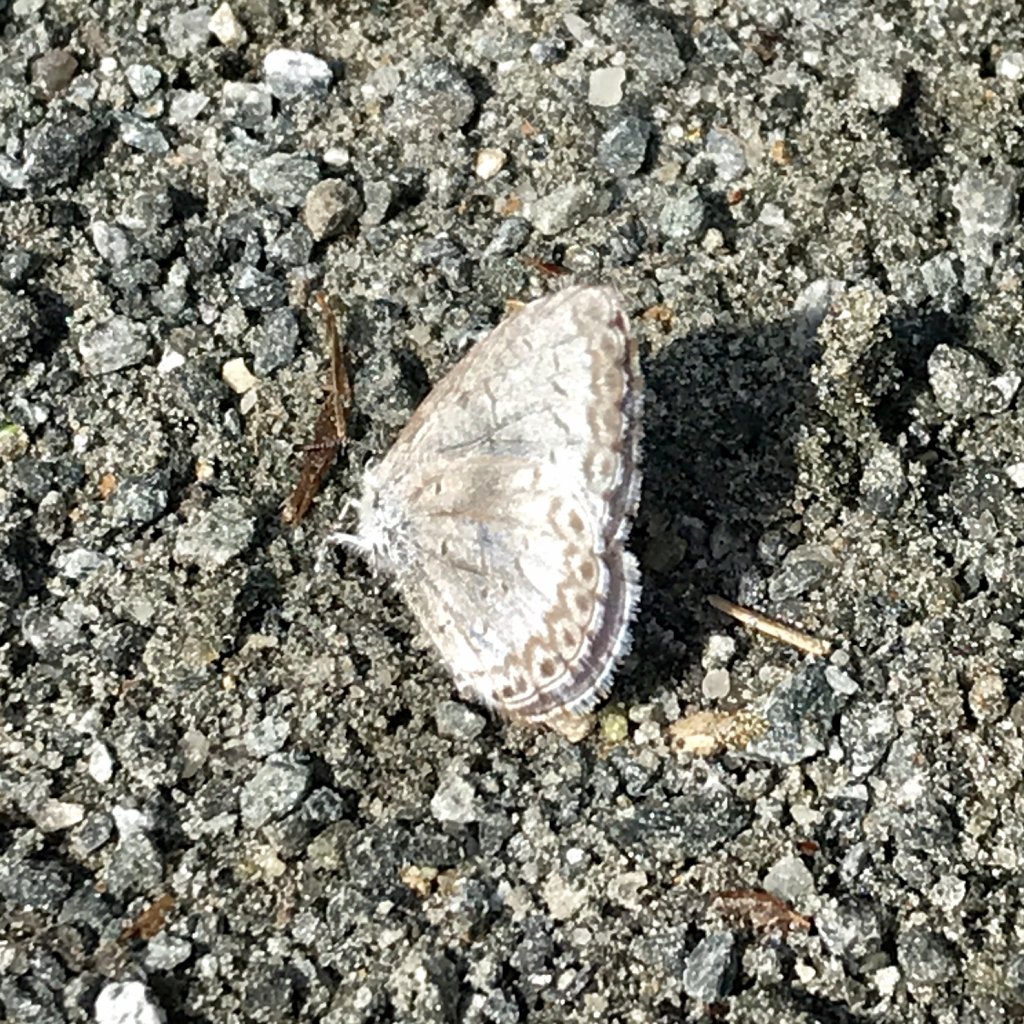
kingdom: Animalia
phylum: Arthropoda
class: Insecta
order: Lepidoptera
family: Lycaenidae
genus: Celastrina
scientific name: Celastrina lucia
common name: Northern Spring Azure
